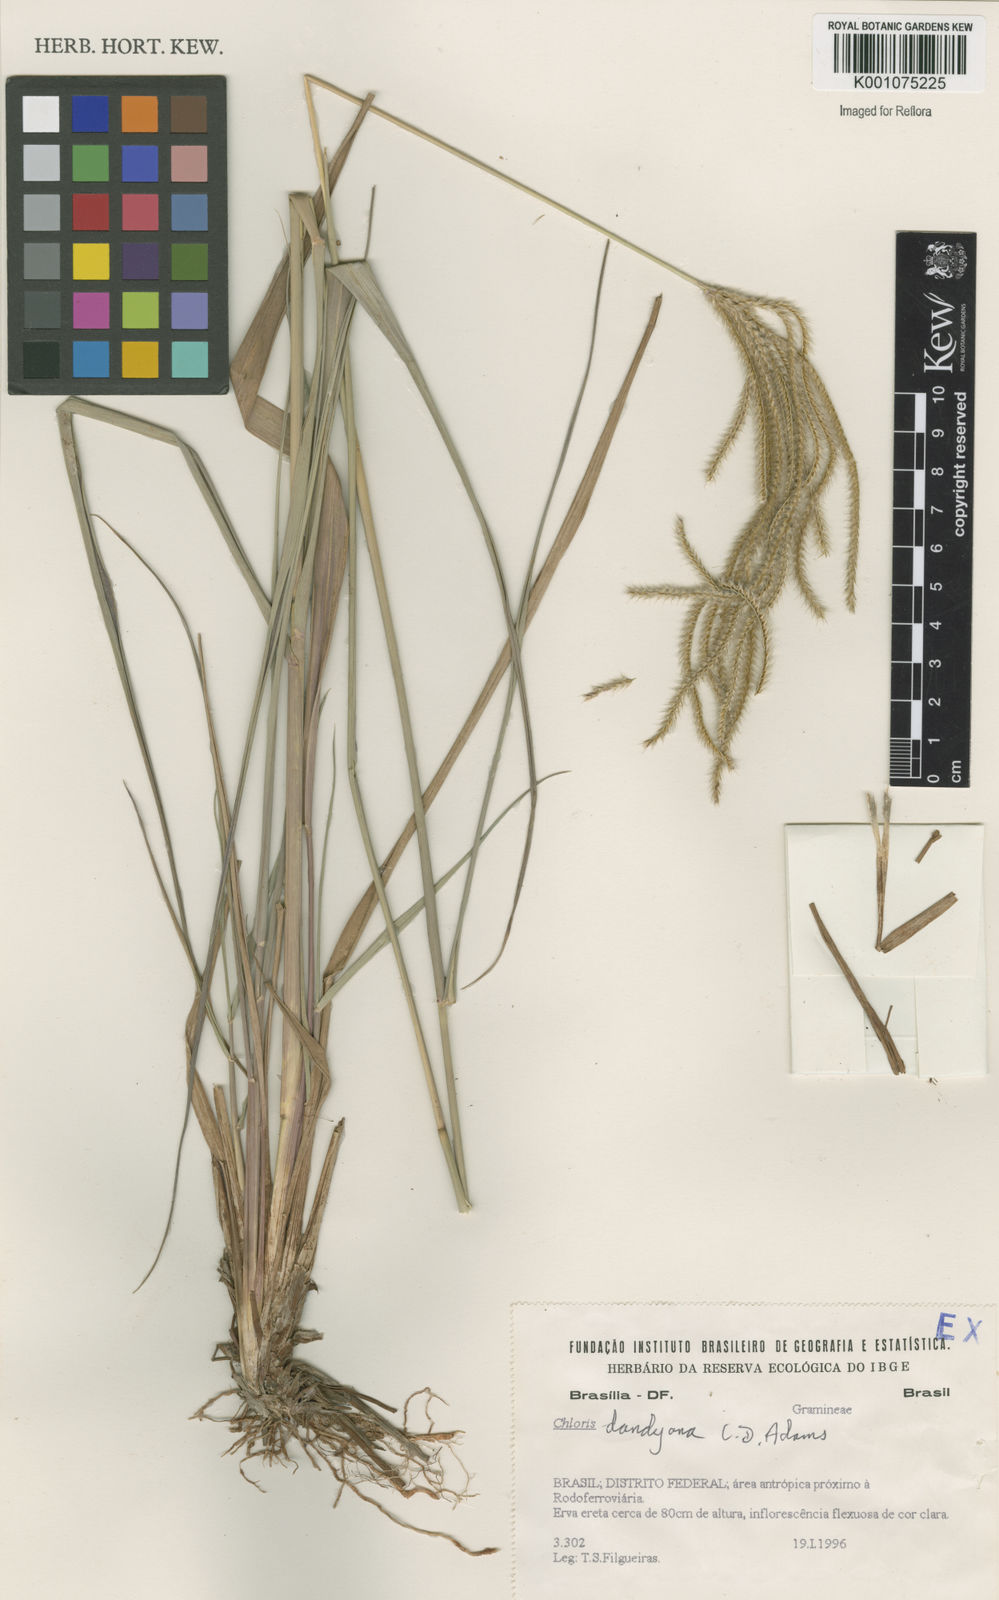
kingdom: Plantae
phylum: Tracheophyta
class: Liliopsida
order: Poales
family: Poaceae
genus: Stapfochloa
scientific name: Stapfochloa elata
